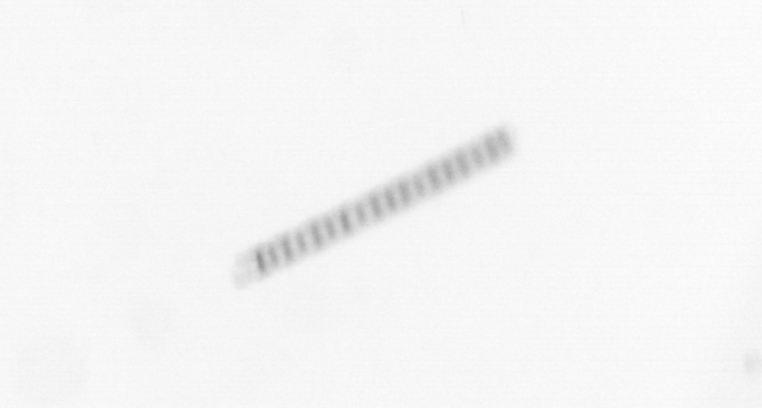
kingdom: Chromista
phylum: Ochrophyta
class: Bacillariophyceae
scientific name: Bacillariophyceae
